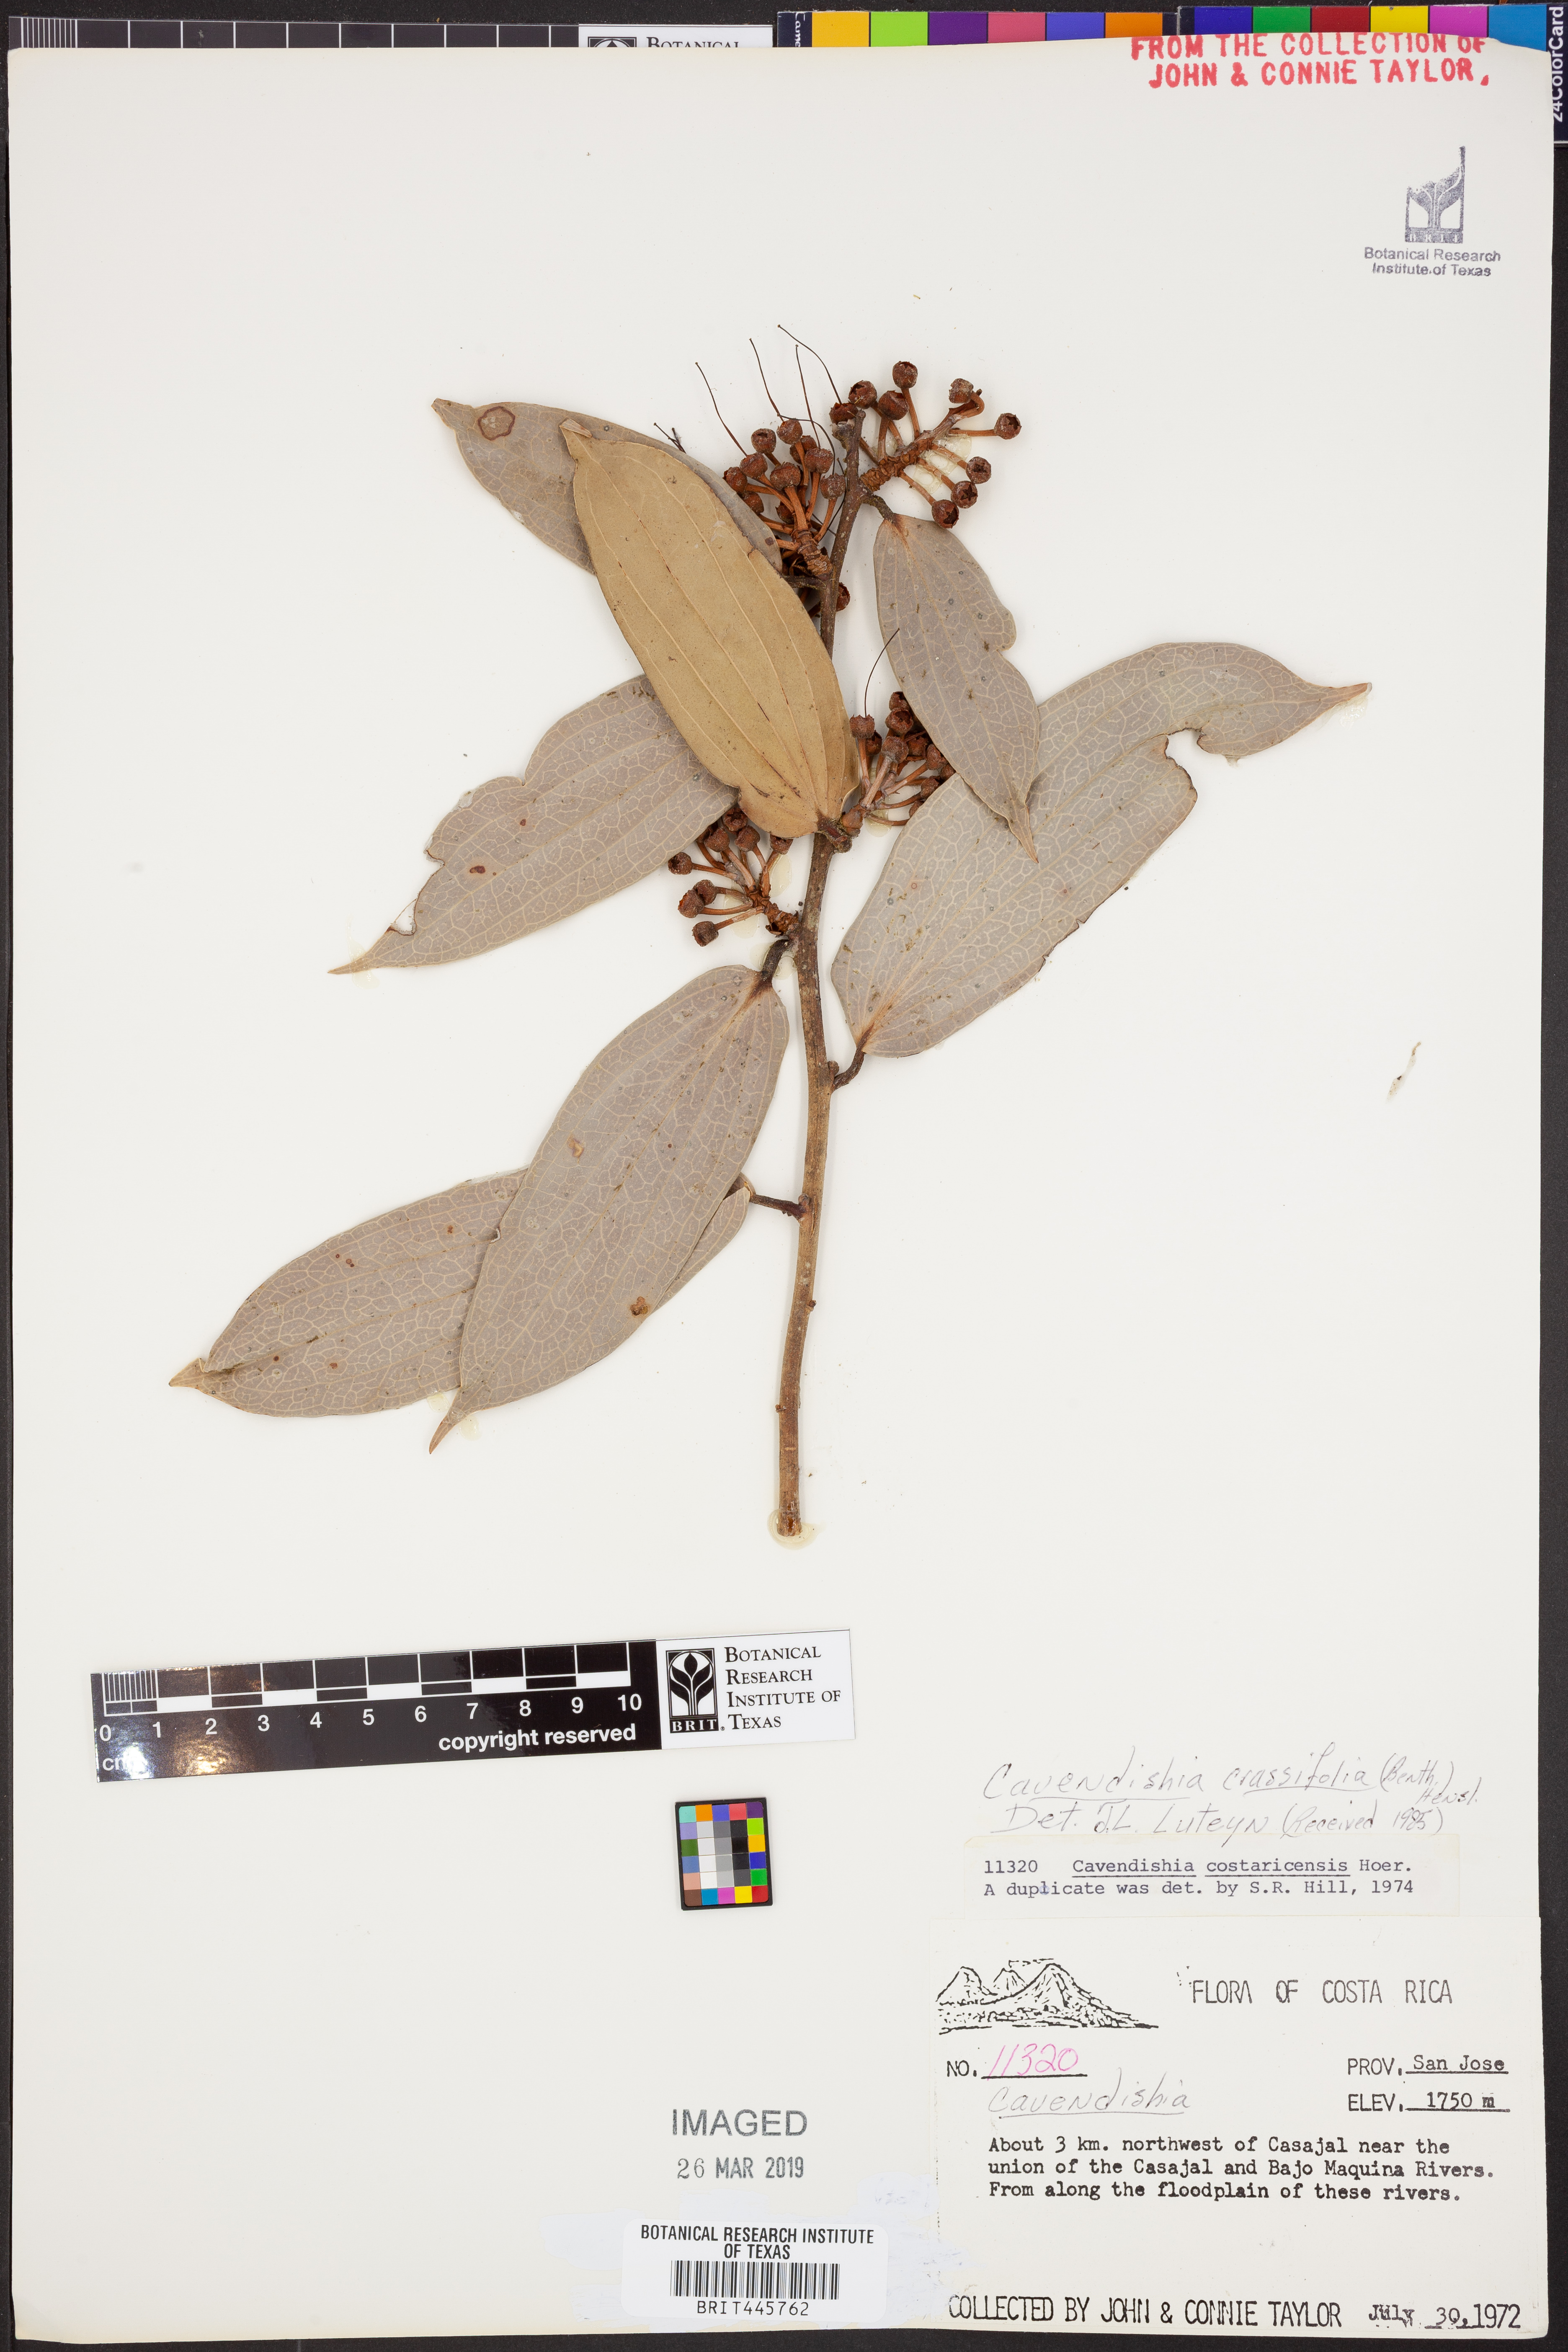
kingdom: Plantae
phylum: Tracheophyta
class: Magnoliopsida
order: Ericales
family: Ericaceae
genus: Cavendishia
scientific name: Cavendishia bracteata
